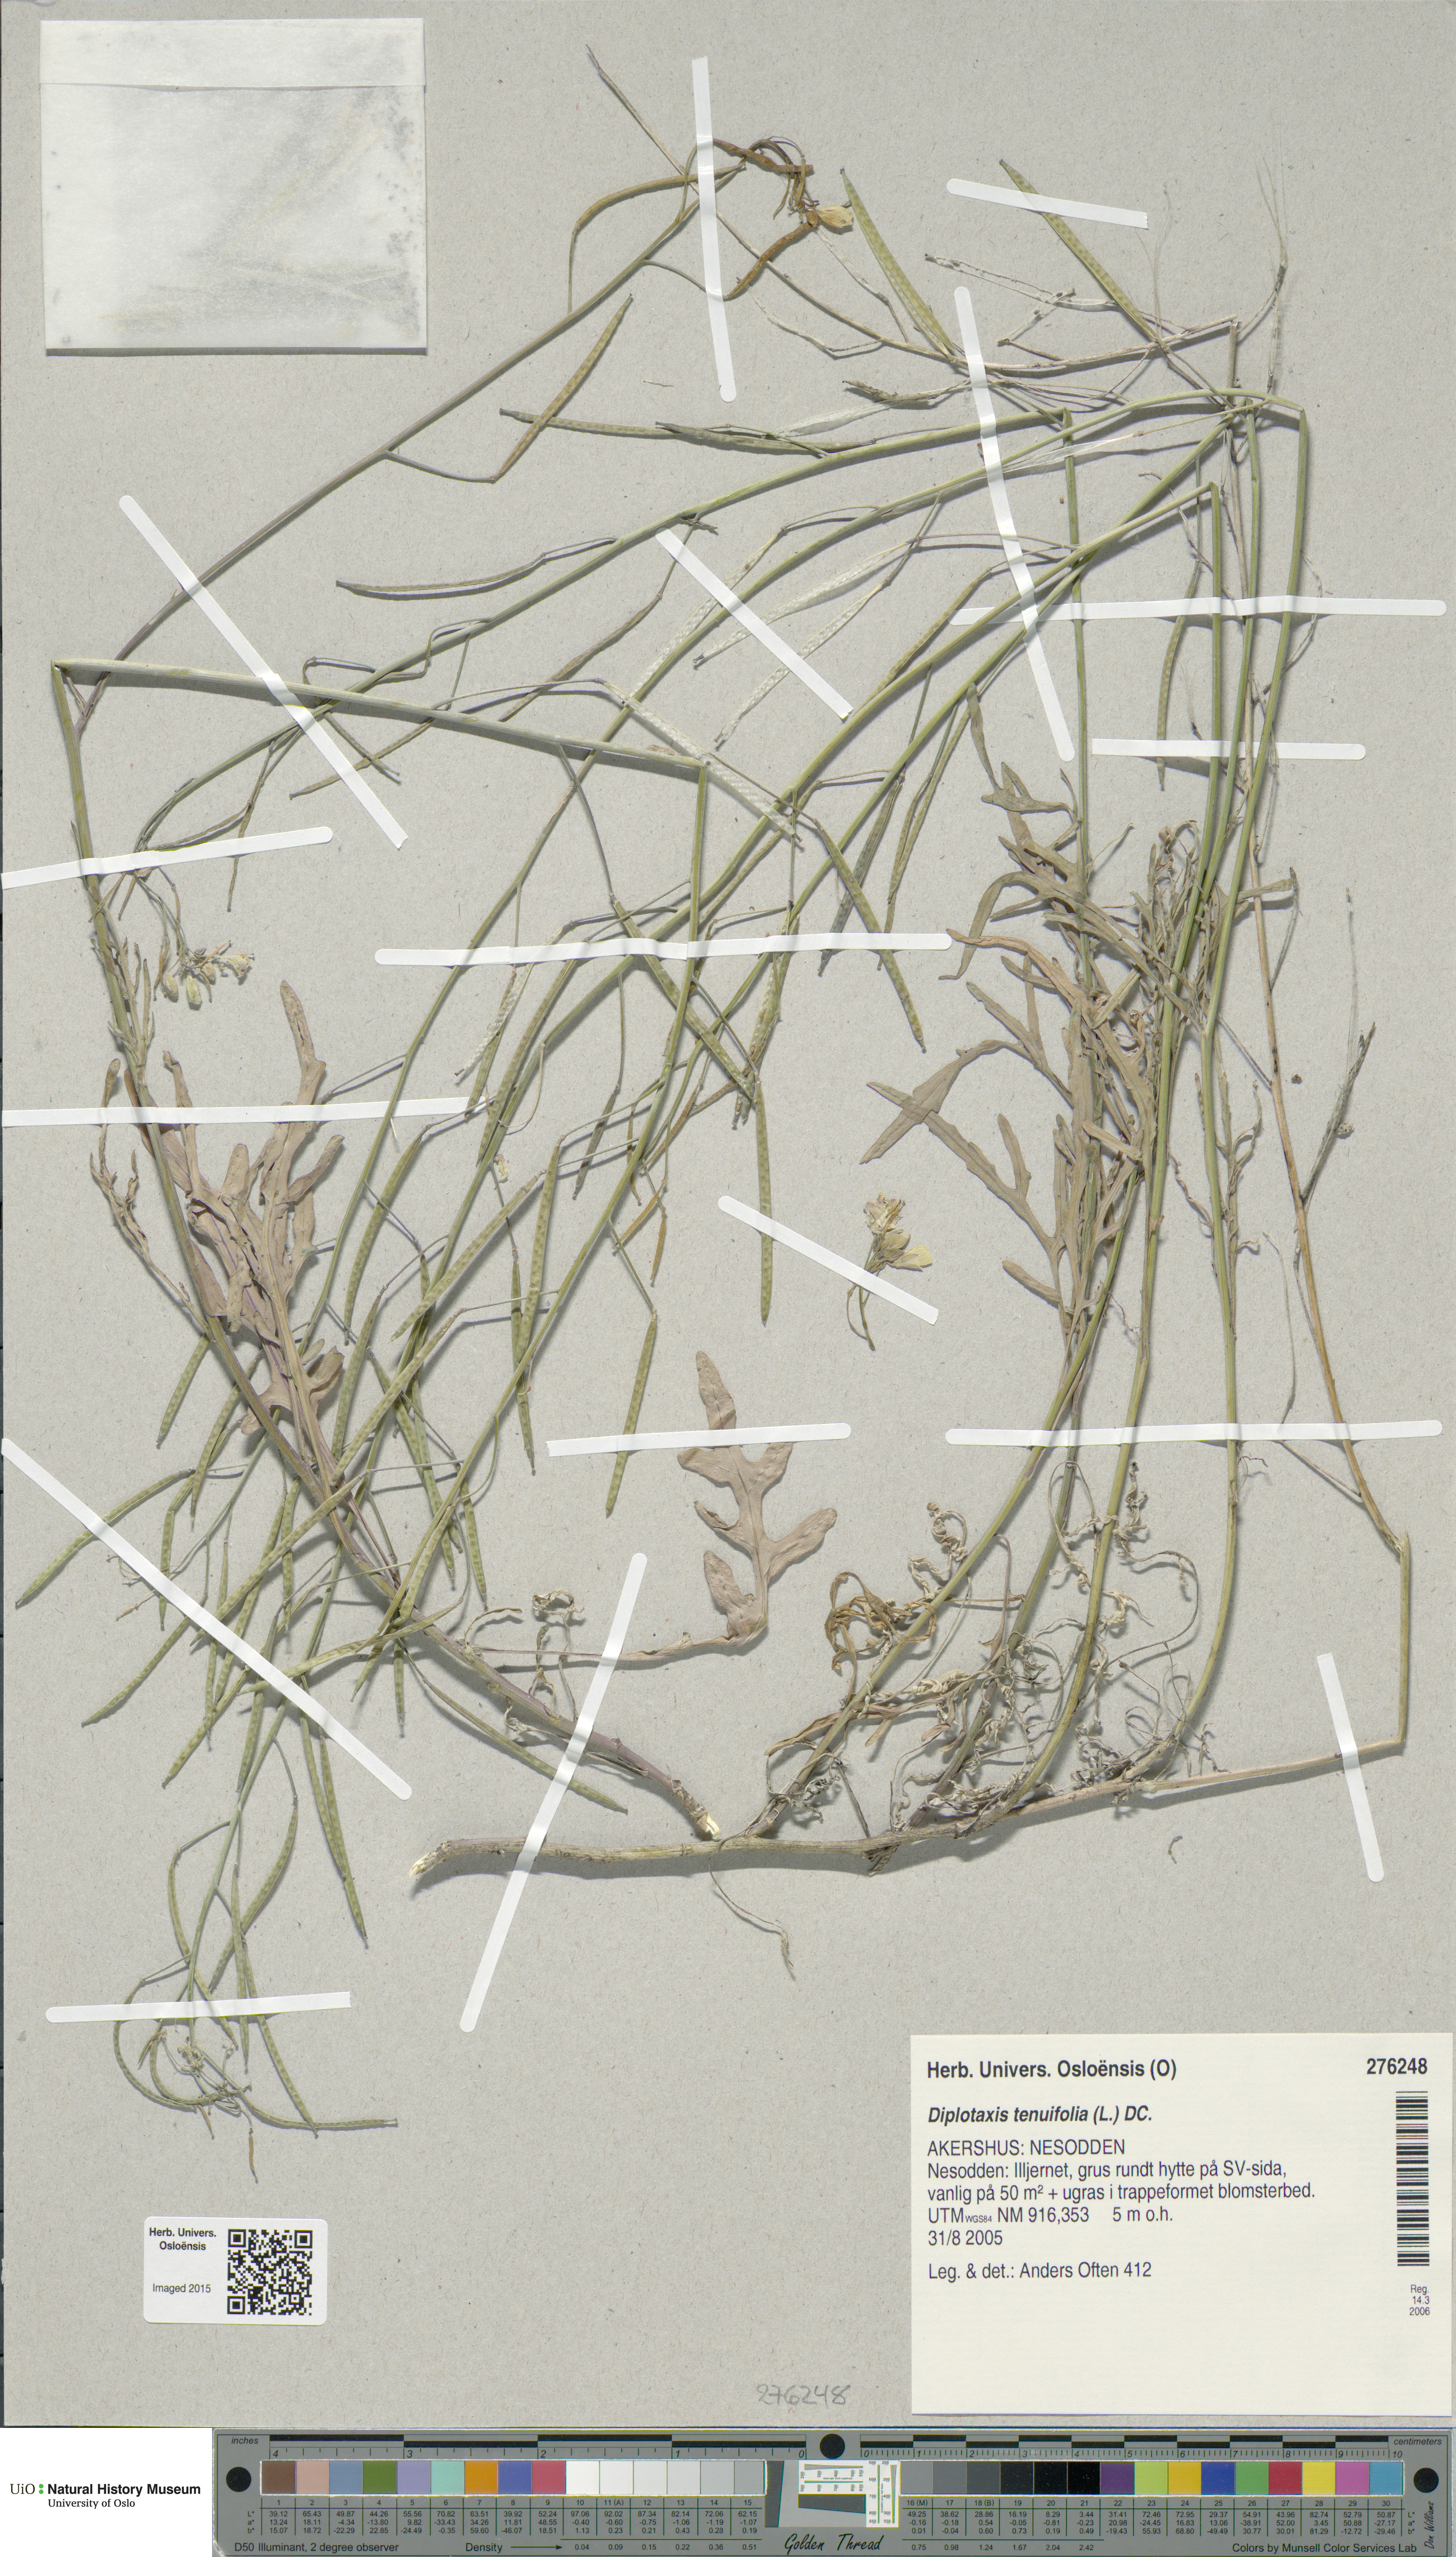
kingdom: Plantae
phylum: Tracheophyta
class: Magnoliopsida
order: Brassicales
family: Brassicaceae
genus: Diplotaxis
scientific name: Diplotaxis tenuifolia
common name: Perennial wall-rocket
